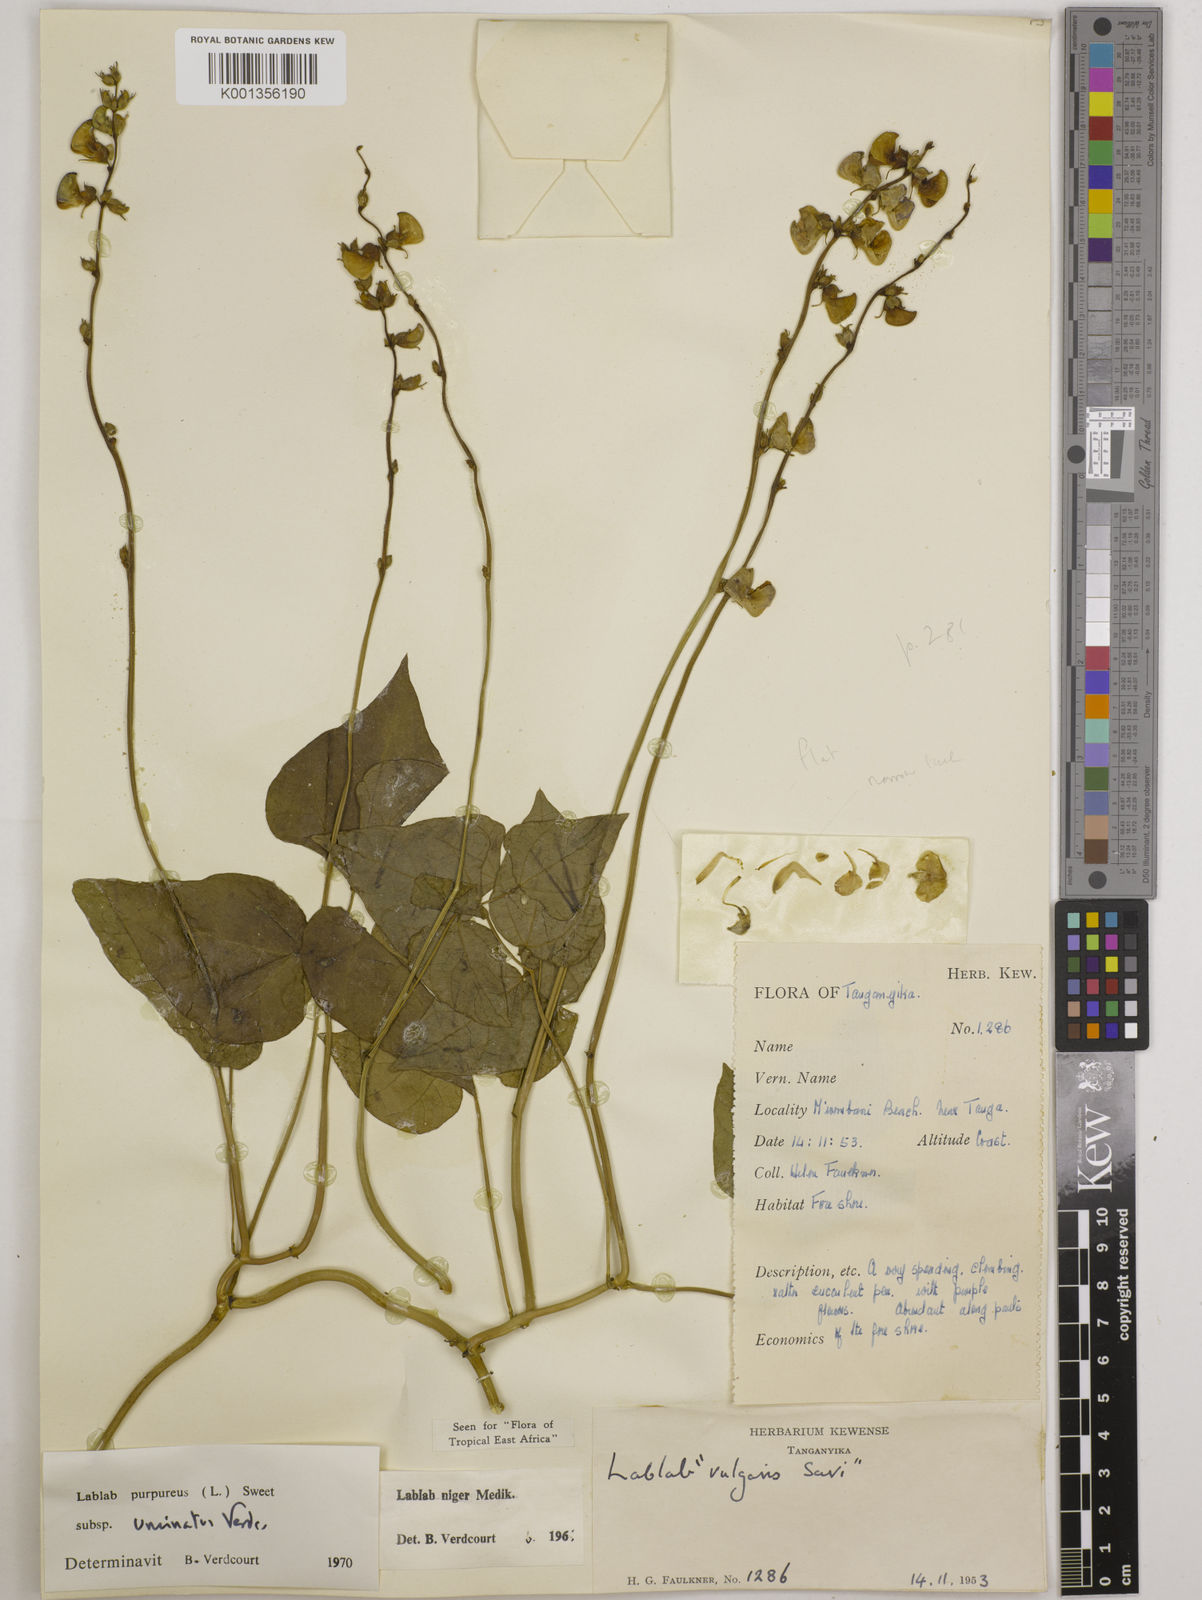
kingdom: Plantae
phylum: Tracheophyta
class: Magnoliopsida
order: Fabales
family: Fabaceae
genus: Lablab
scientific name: Lablab purpureus
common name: Lablab-bean
